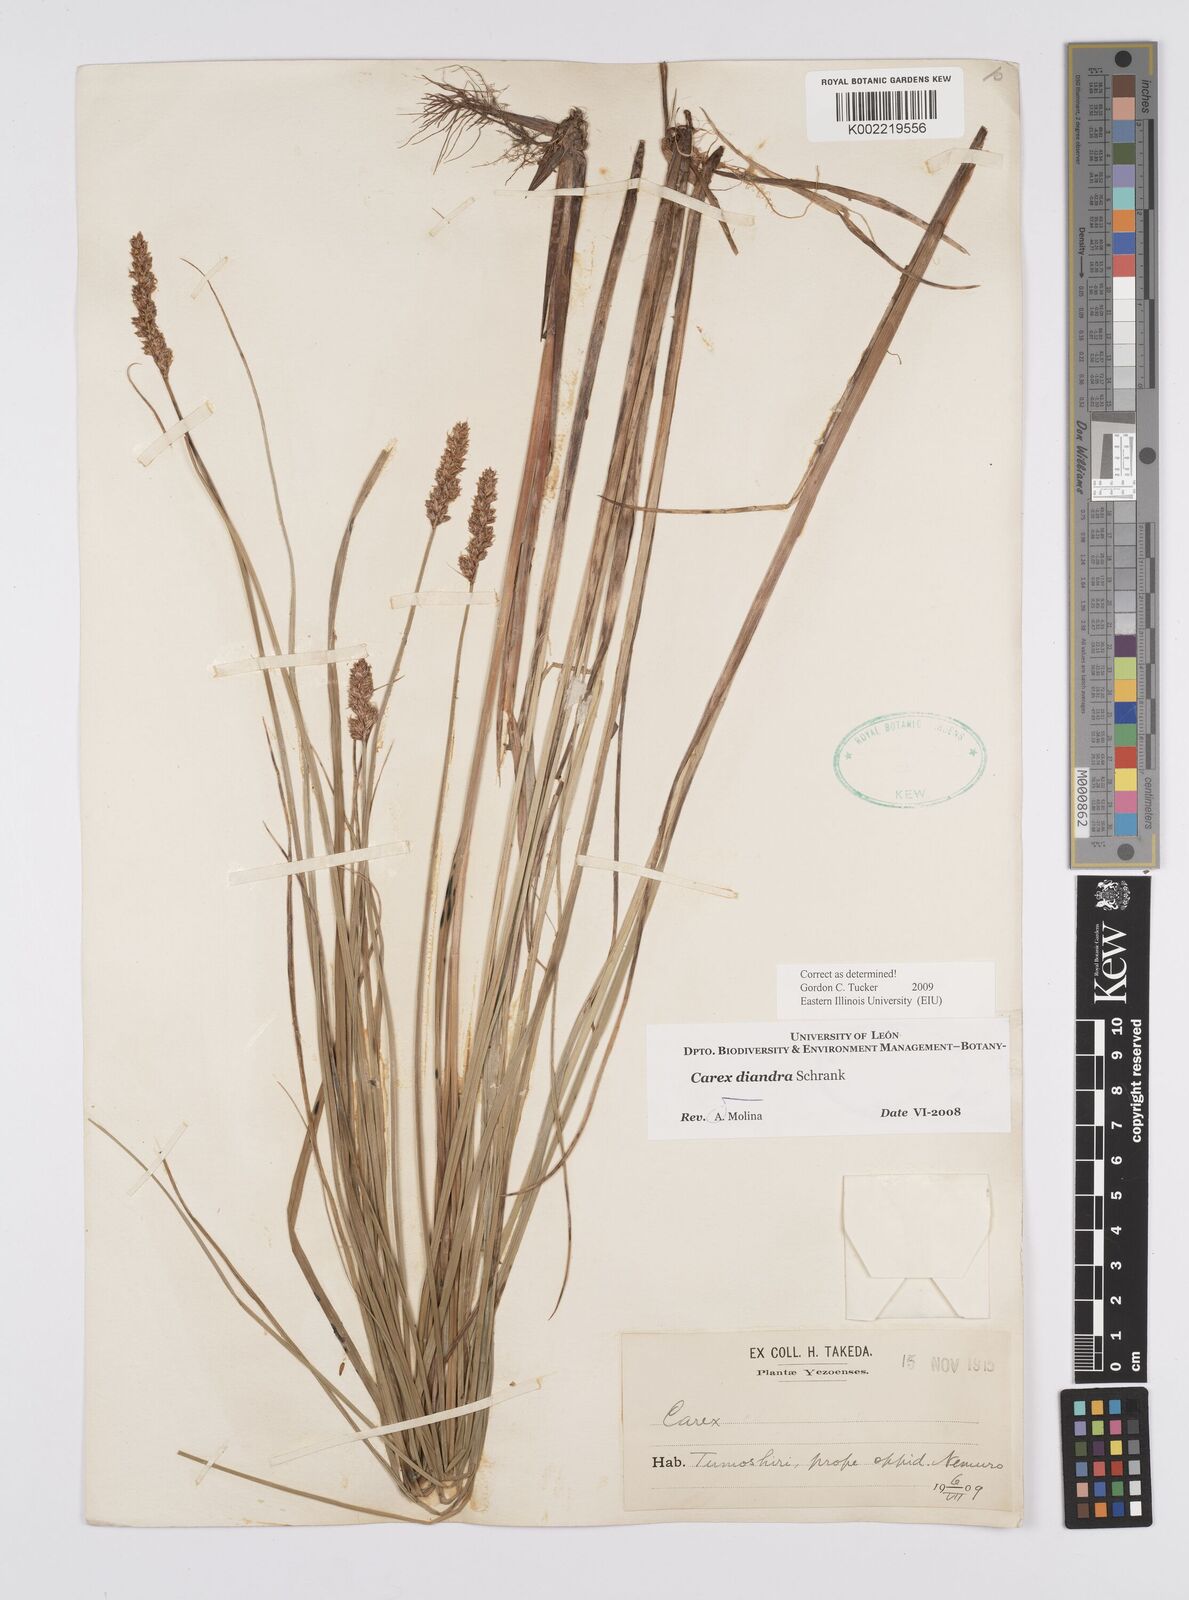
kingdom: Plantae
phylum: Tracheophyta
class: Liliopsida
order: Poales
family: Cyperaceae
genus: Carex
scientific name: Carex diandra
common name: Lesser tussock-sedge
